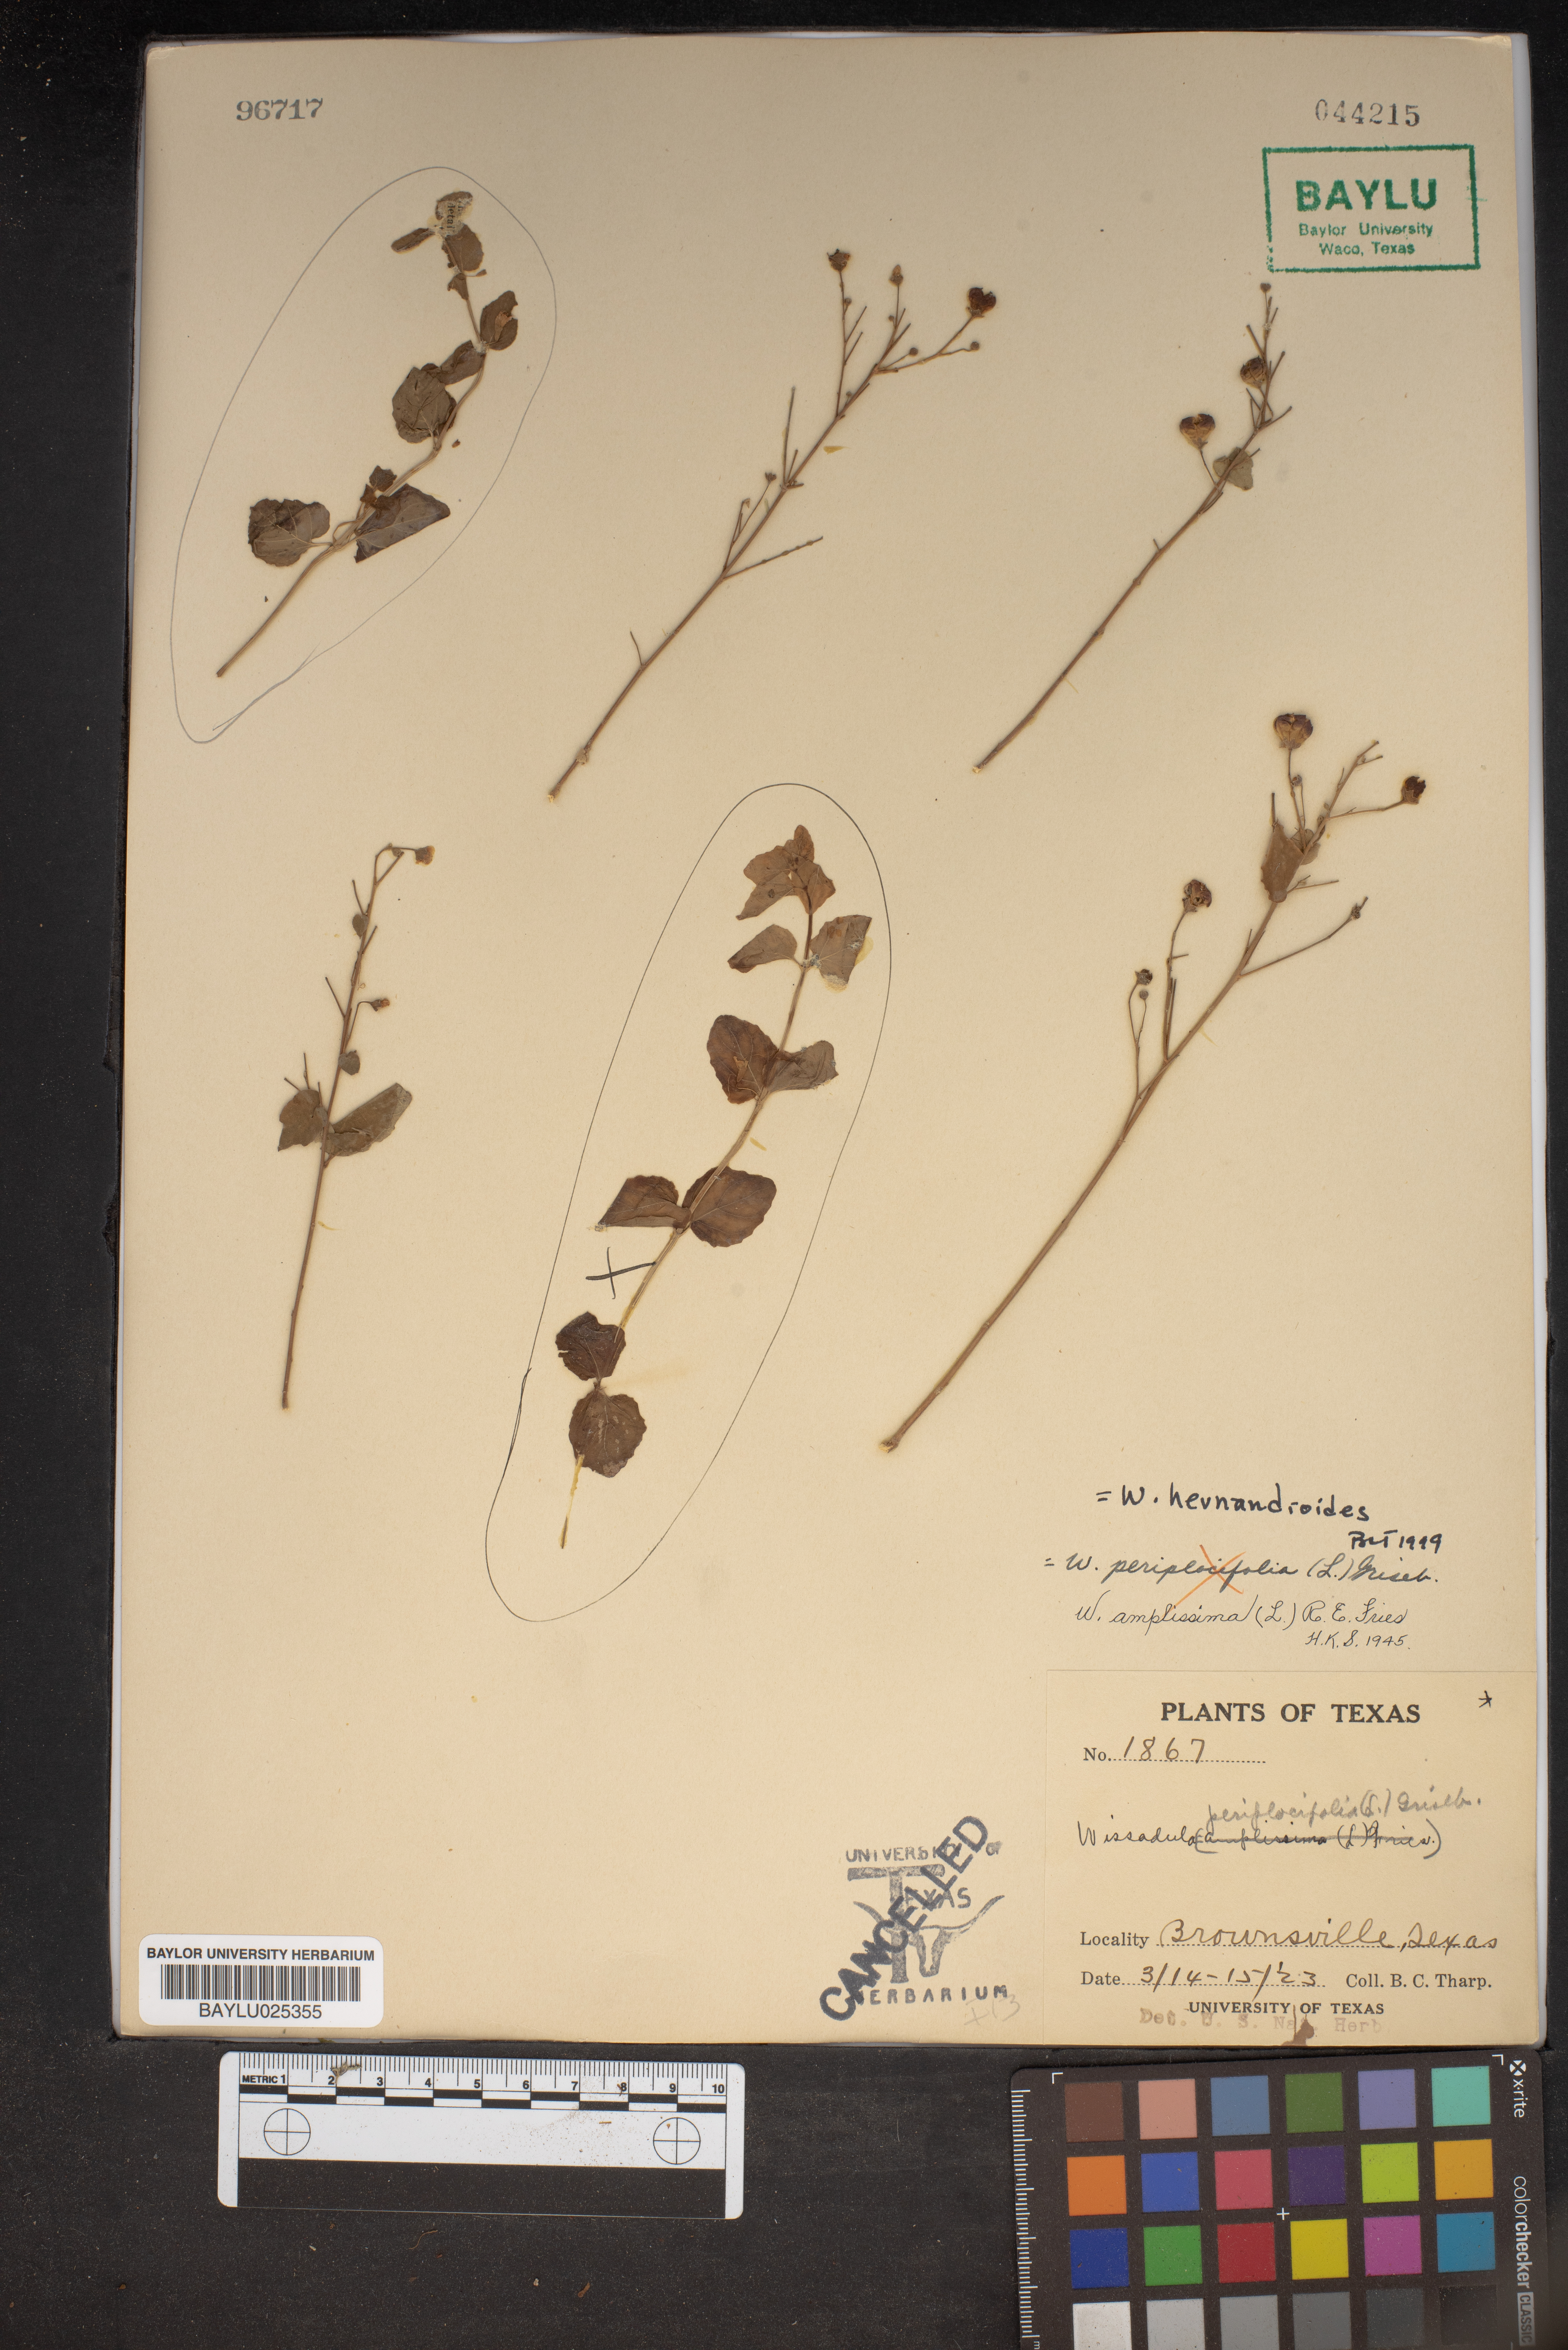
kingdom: Plantae
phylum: Tracheophyta
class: Magnoliopsida
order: Malvales
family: Malvaceae
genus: Wissadula
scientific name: Wissadula periplocifolia
